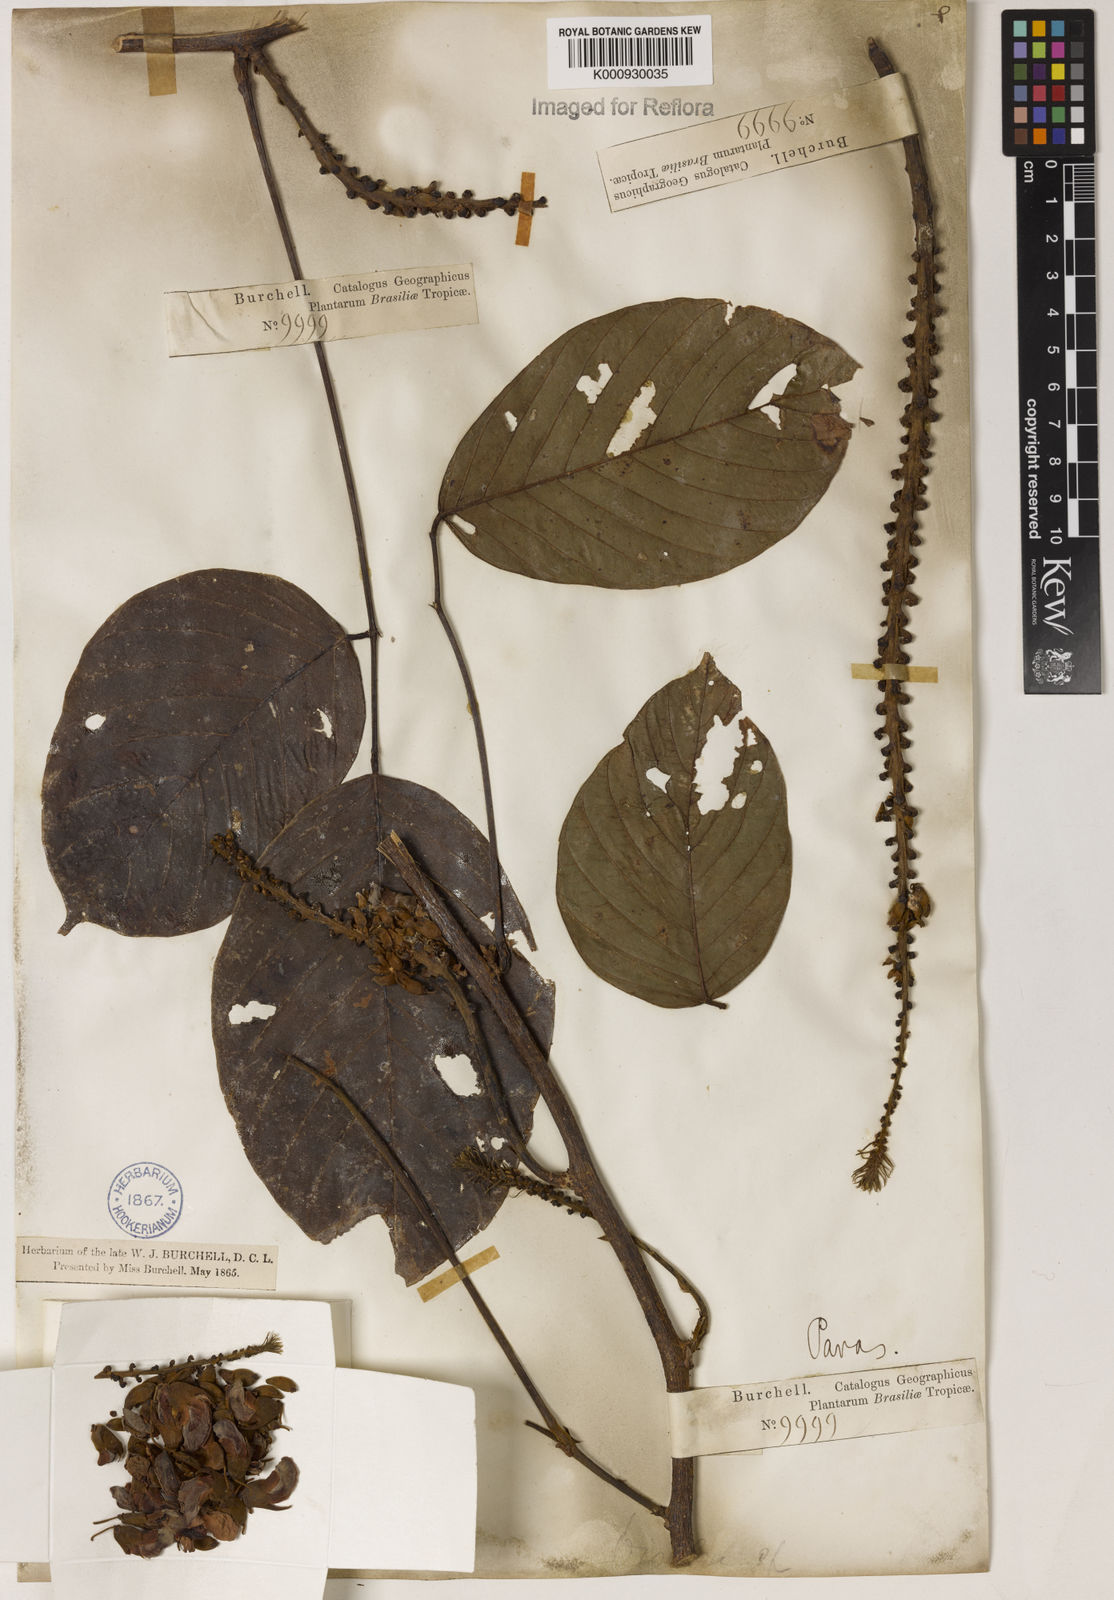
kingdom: Plantae
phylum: Tracheophyta
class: Magnoliopsida
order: Fabales
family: Fabaceae
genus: Macropsychanthus
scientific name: Macropsychanthus malacocarpus
